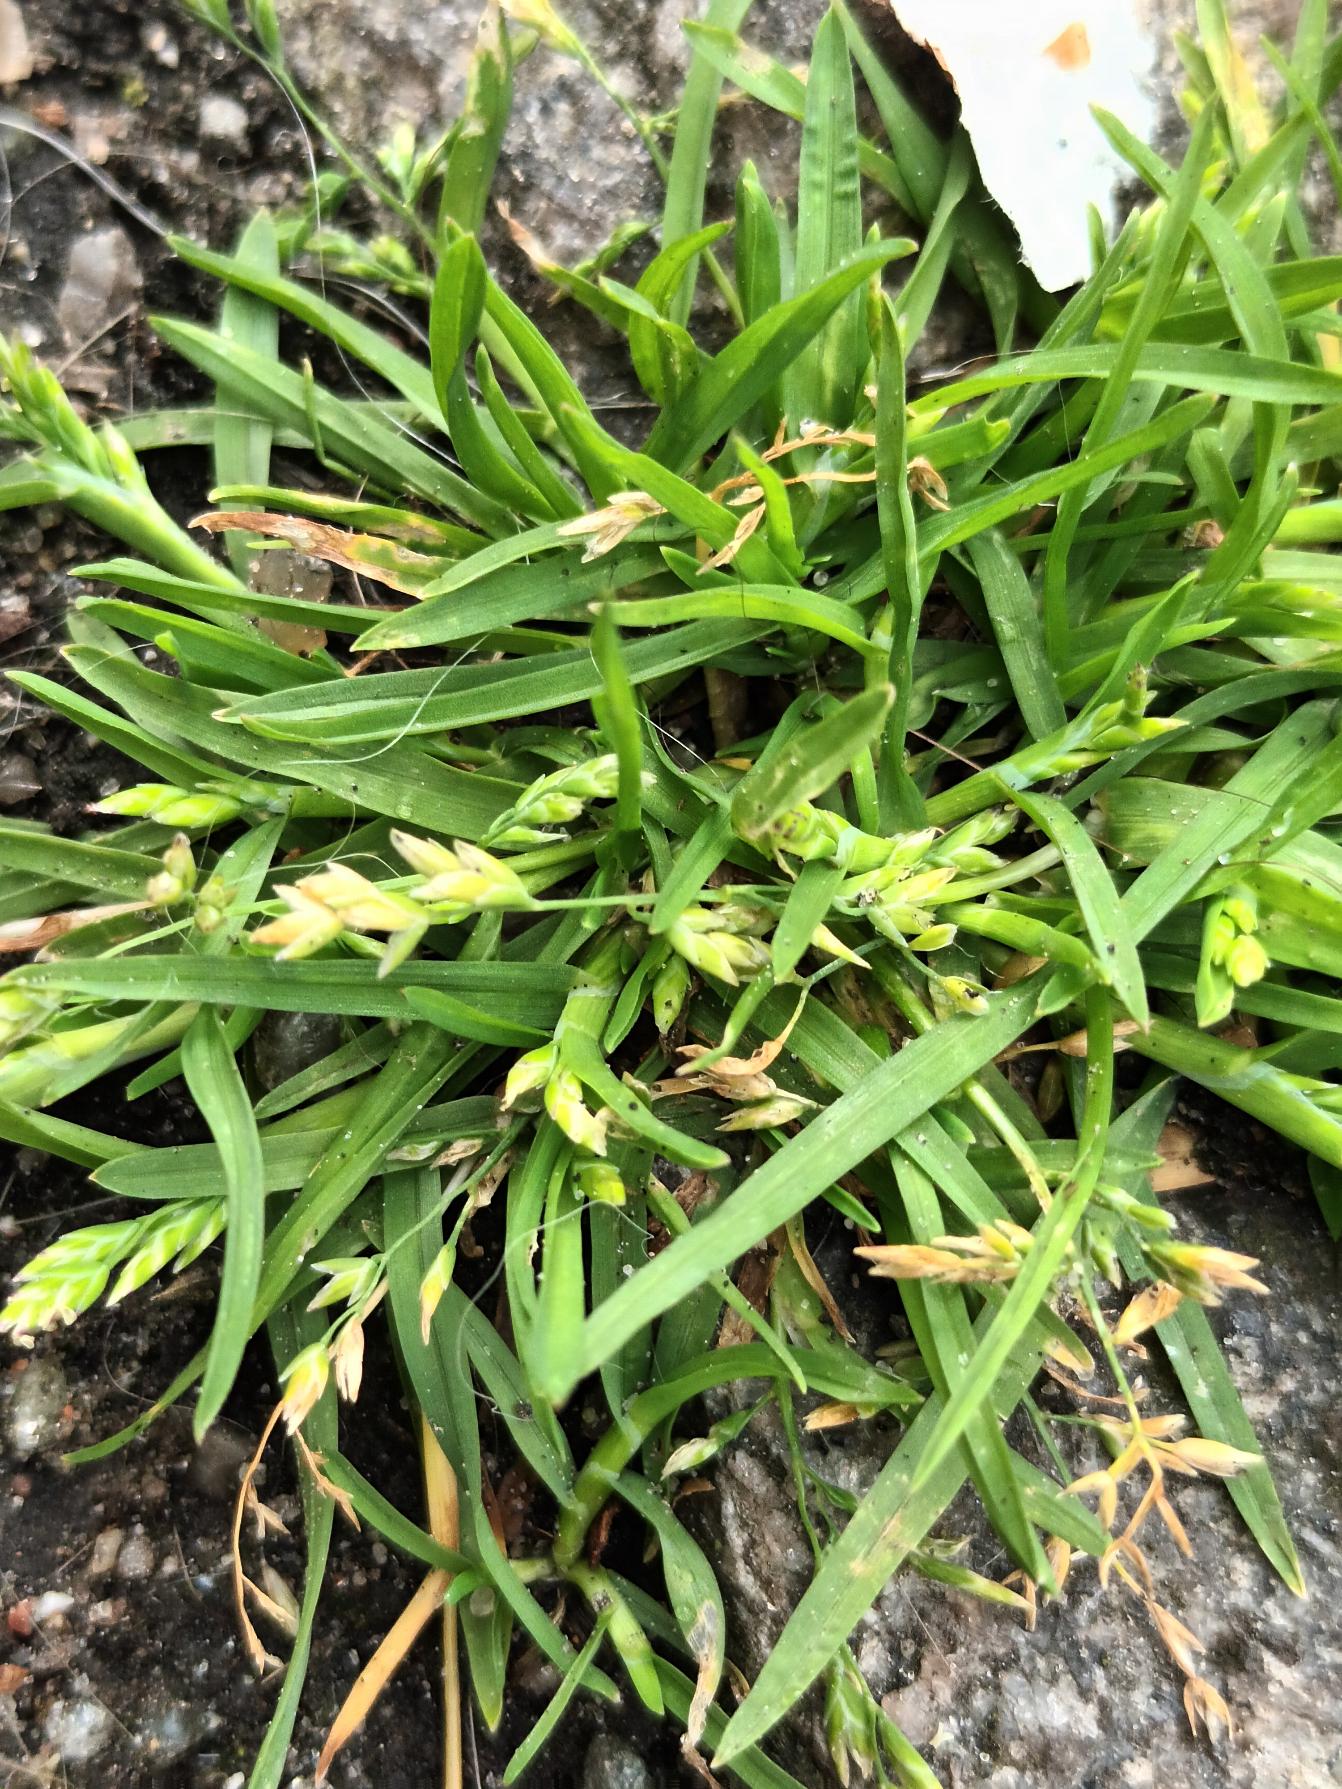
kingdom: Plantae
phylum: Tracheophyta
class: Liliopsida
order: Poales
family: Poaceae
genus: Poa
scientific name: Poa annua
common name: Enårig rapgræs
